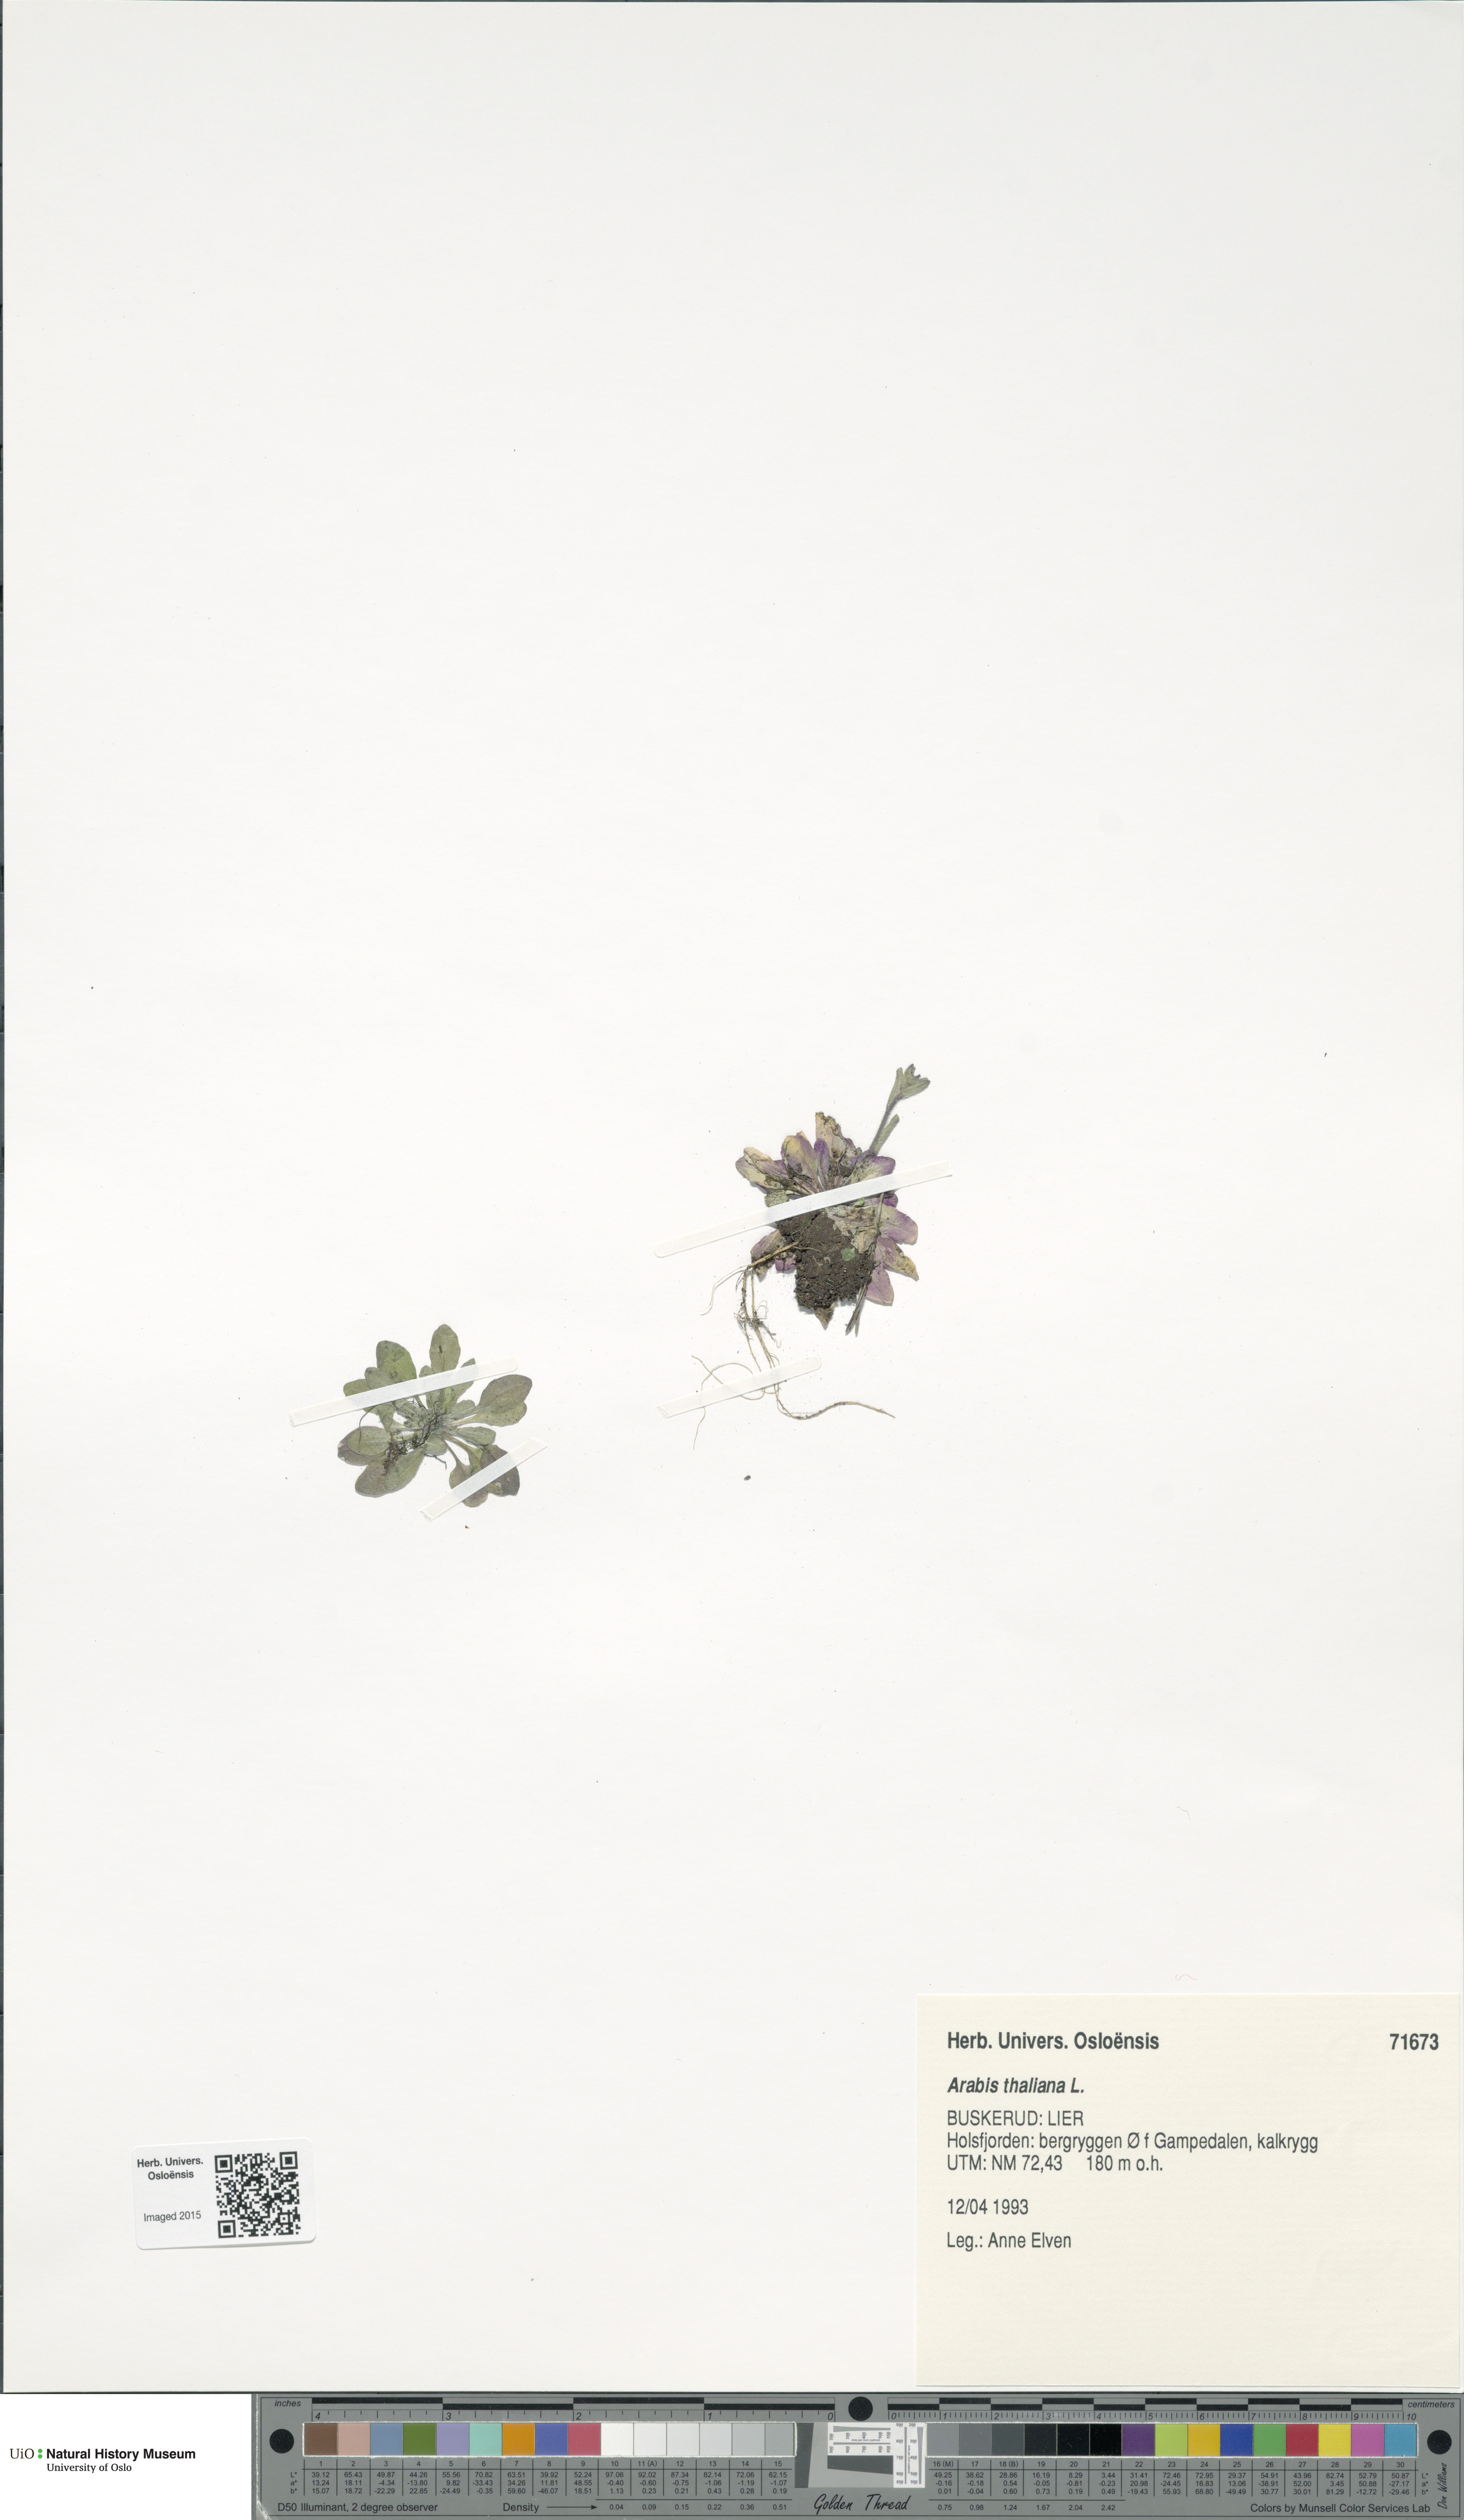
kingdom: Plantae
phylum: Tracheophyta
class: Magnoliopsida
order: Brassicales
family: Brassicaceae
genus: Arabidopsis
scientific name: Arabidopsis thaliana
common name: Thale cress
